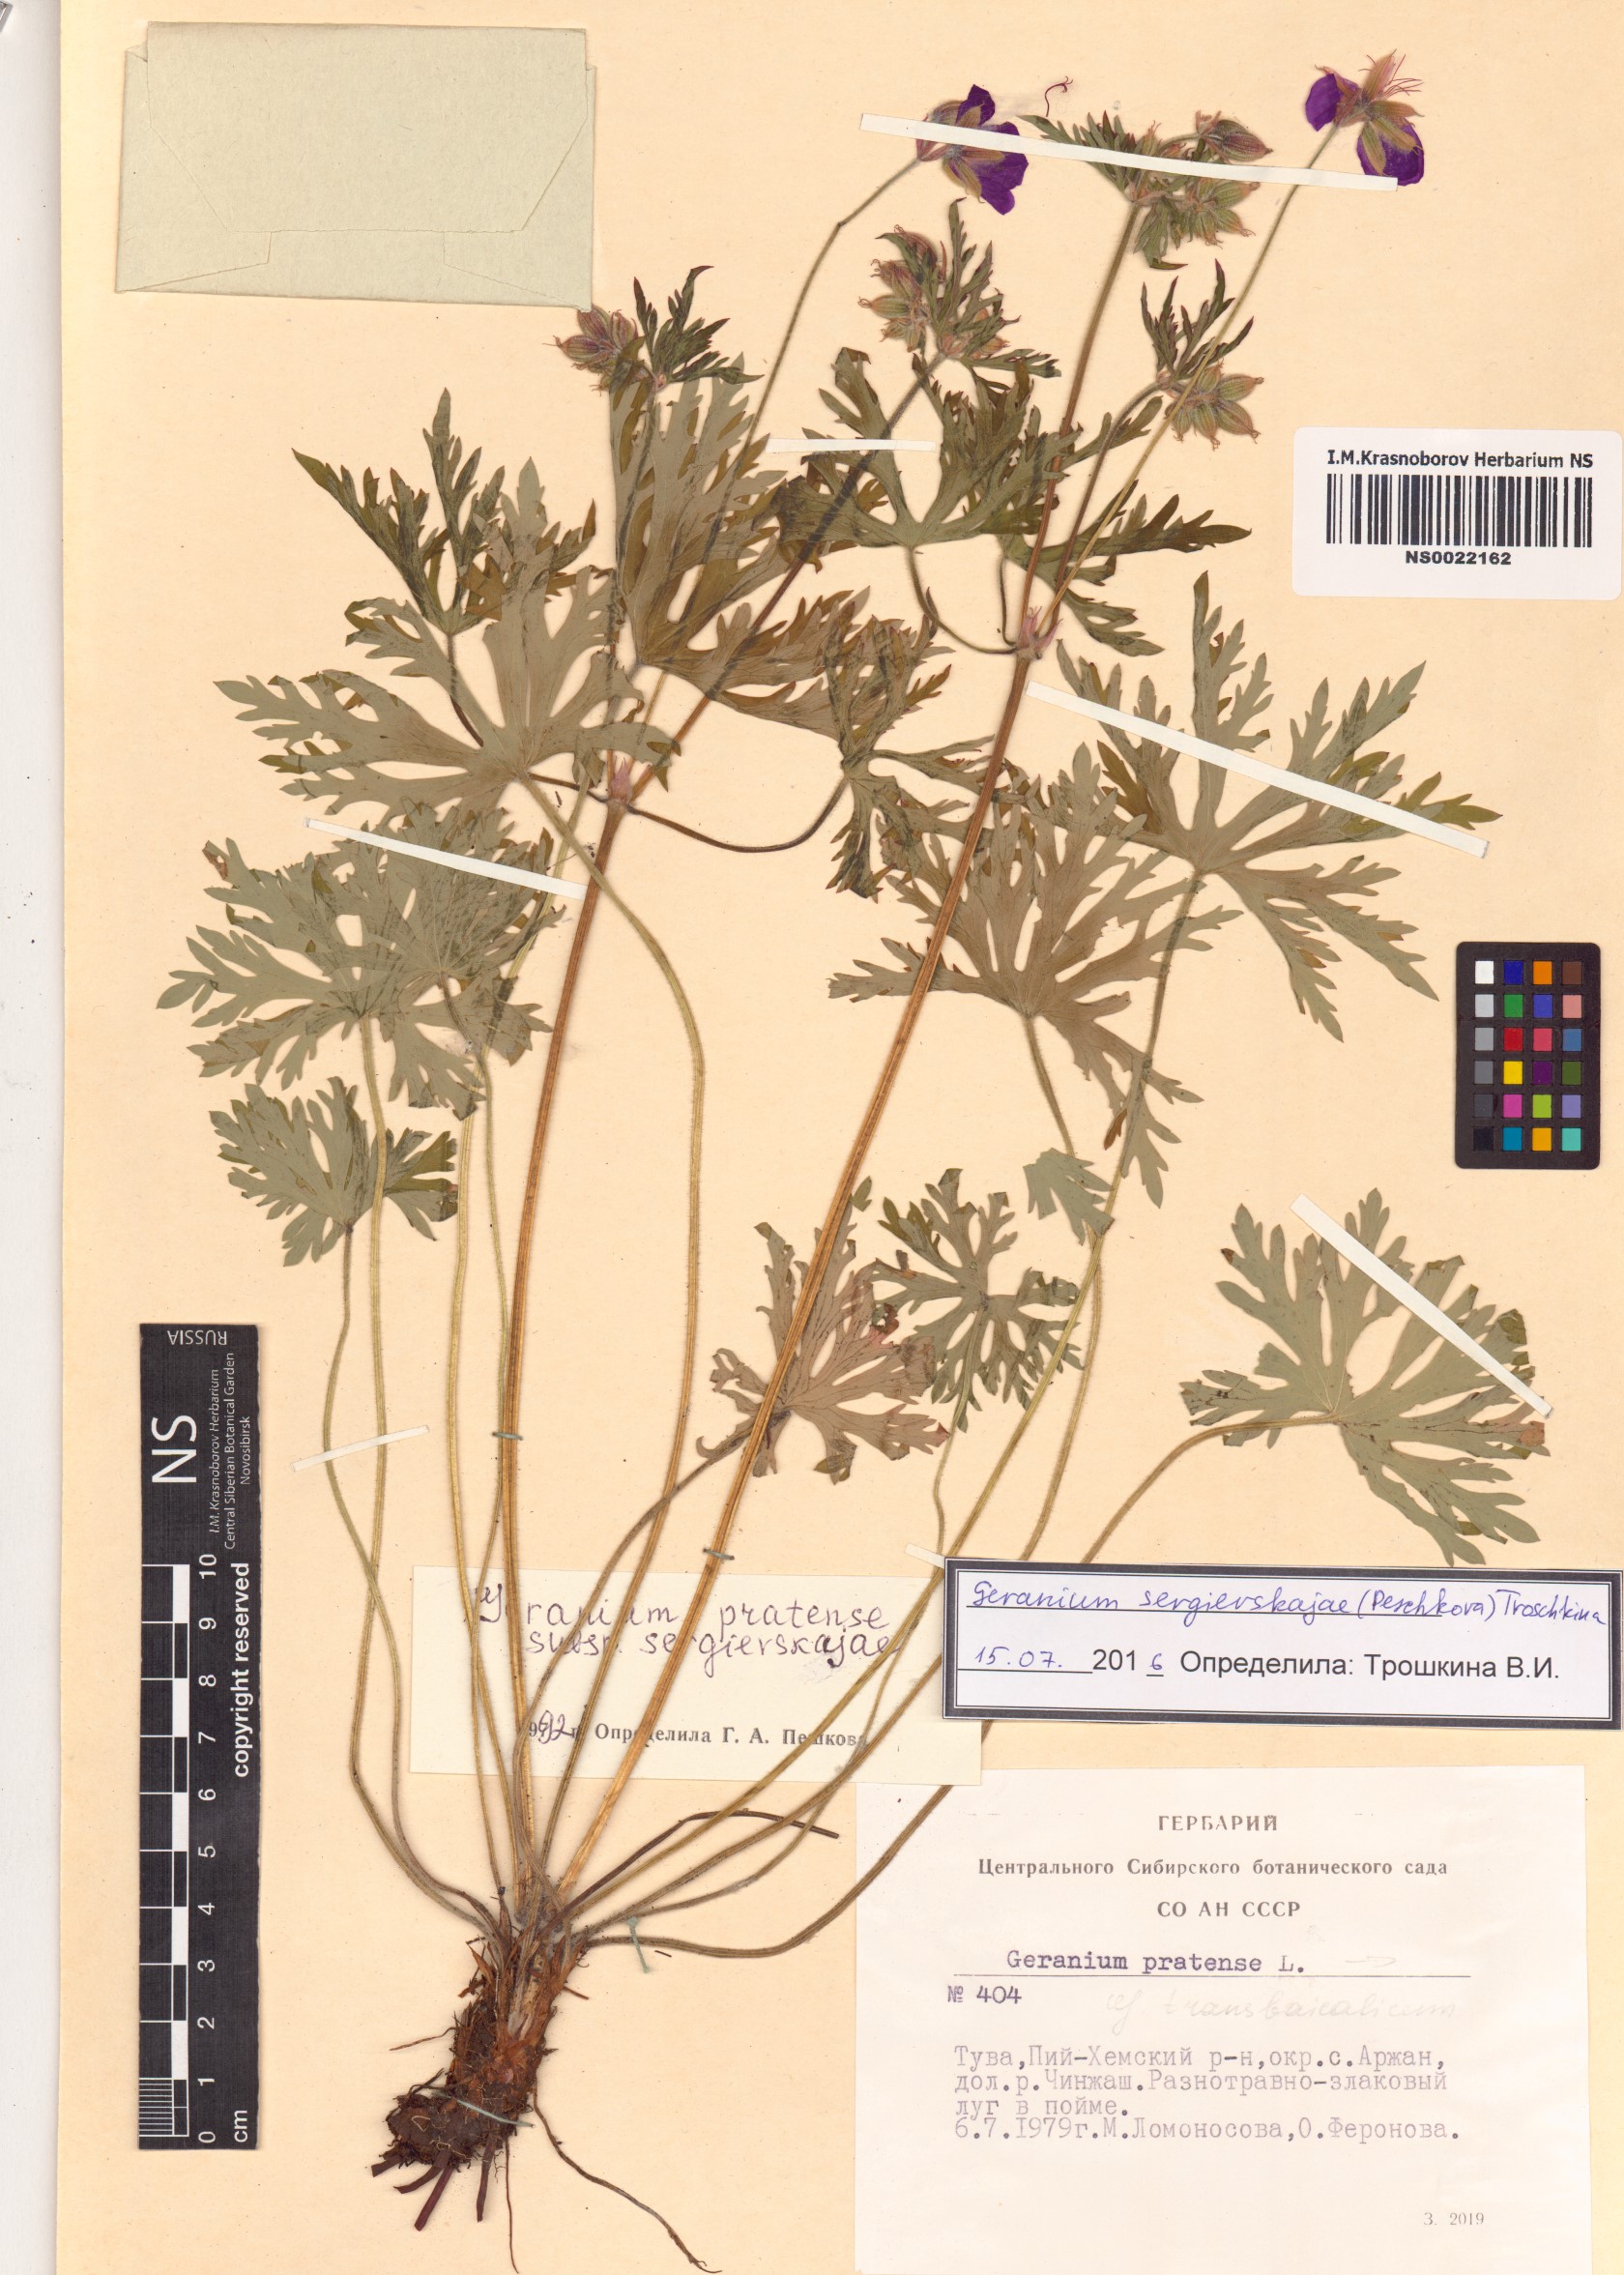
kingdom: Plantae
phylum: Tracheophyta
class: Magnoliopsida
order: Geraniales
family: Geraniaceae
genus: Geranium
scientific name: Geranium pratense
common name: Meadow crane's-bill
